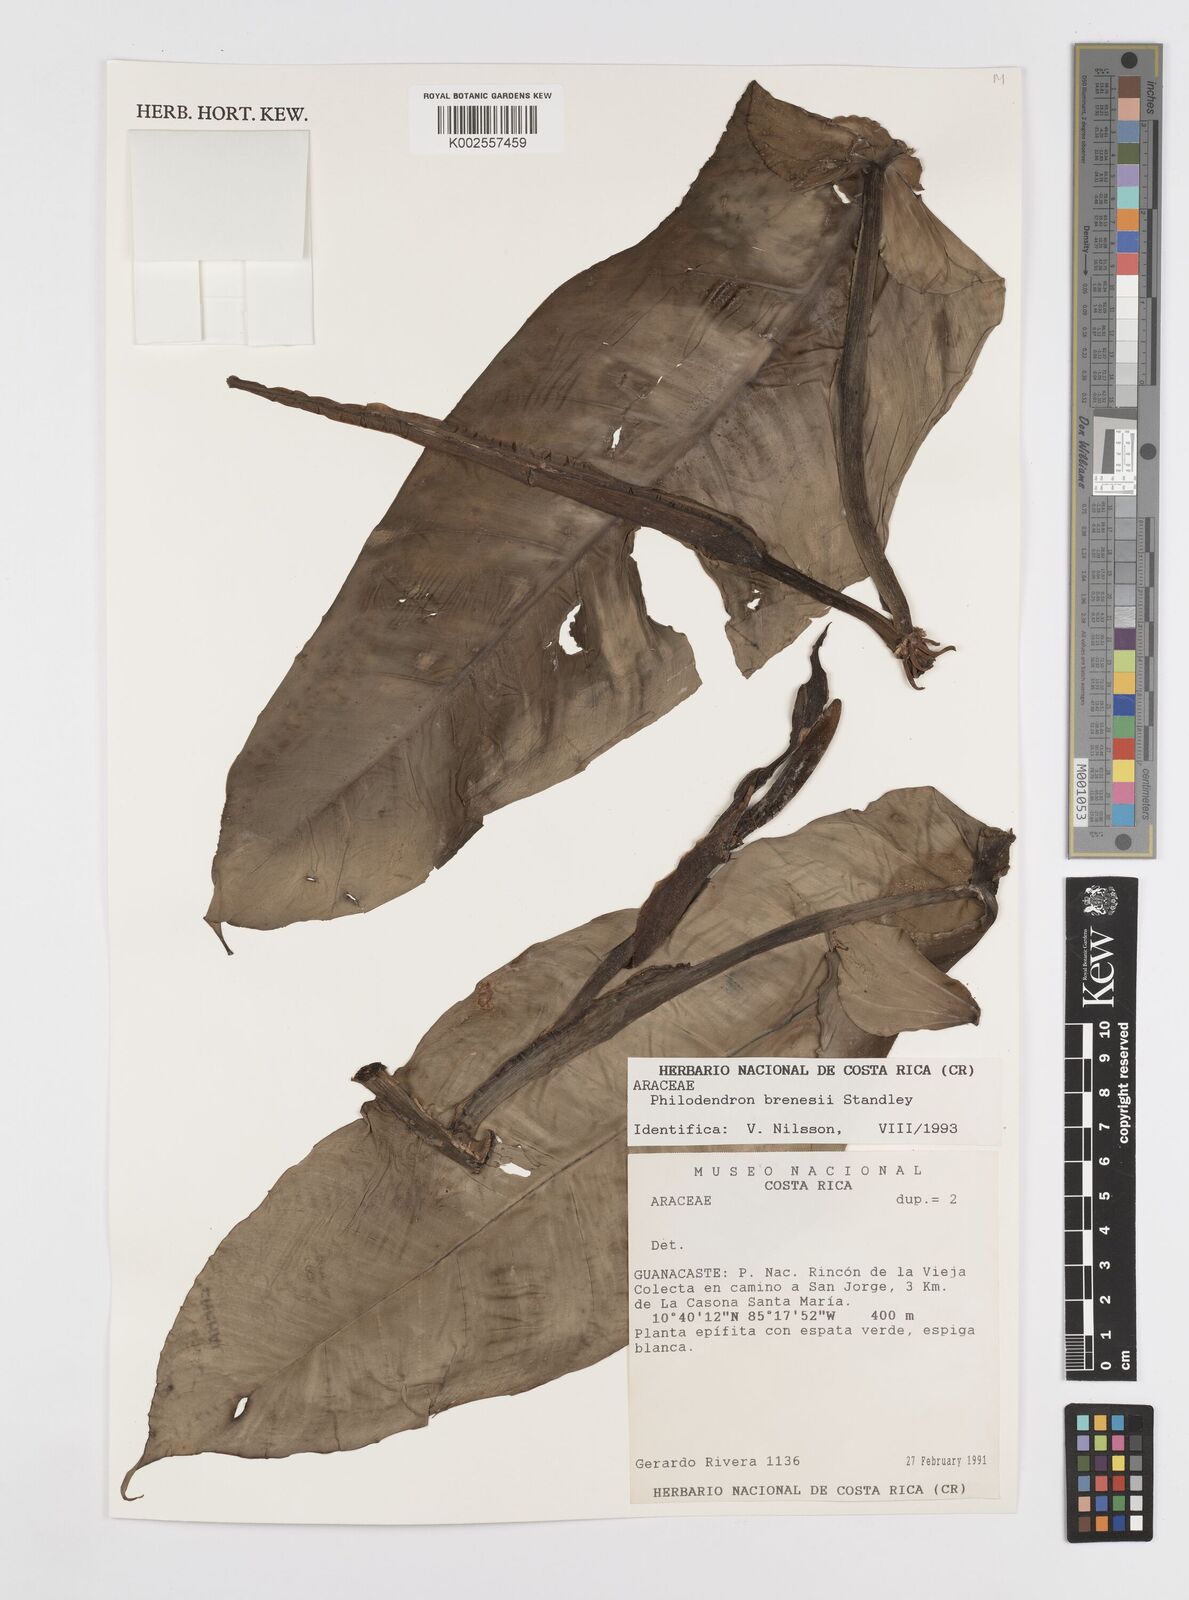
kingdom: Plantae
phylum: Tracheophyta
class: Liliopsida
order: Alismatales
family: Araceae
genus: Philodendron
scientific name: Philodendron brenesii
